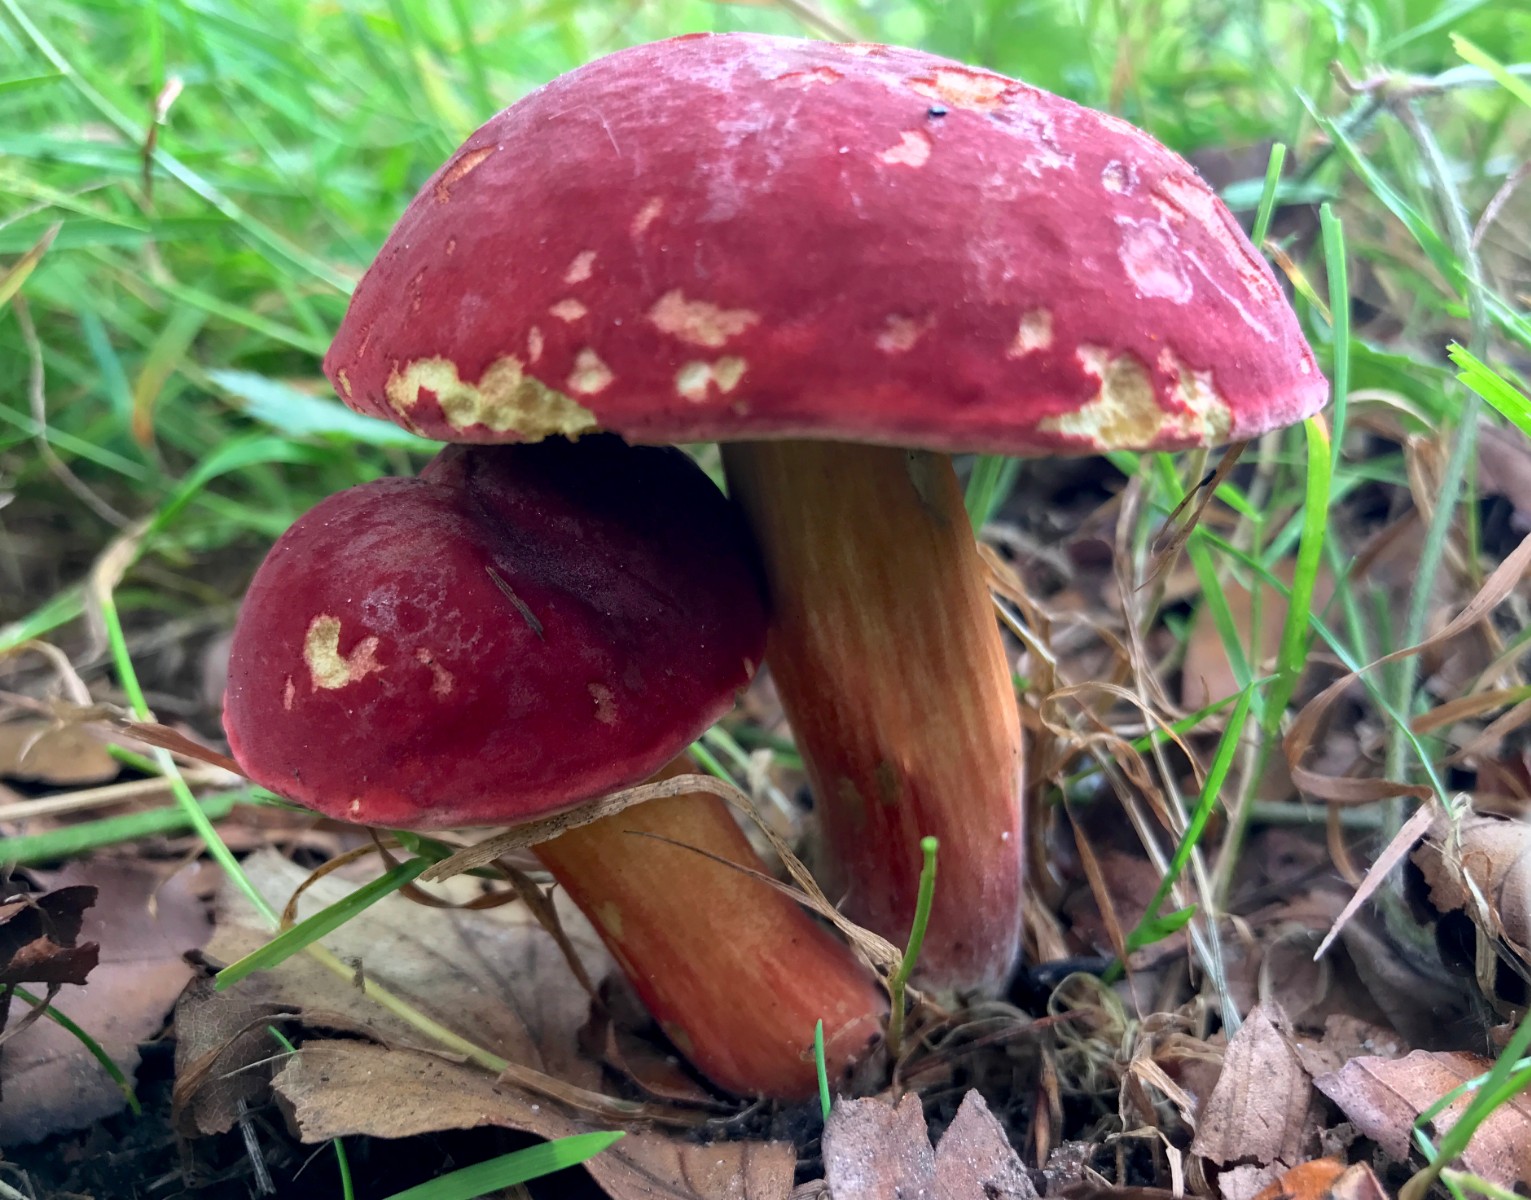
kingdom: Fungi
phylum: Basidiomycota
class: Agaricomycetes
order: Boletales
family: Boletaceae
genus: Hortiboletus
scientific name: Hortiboletus rubellus
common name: blodrød rørhat
